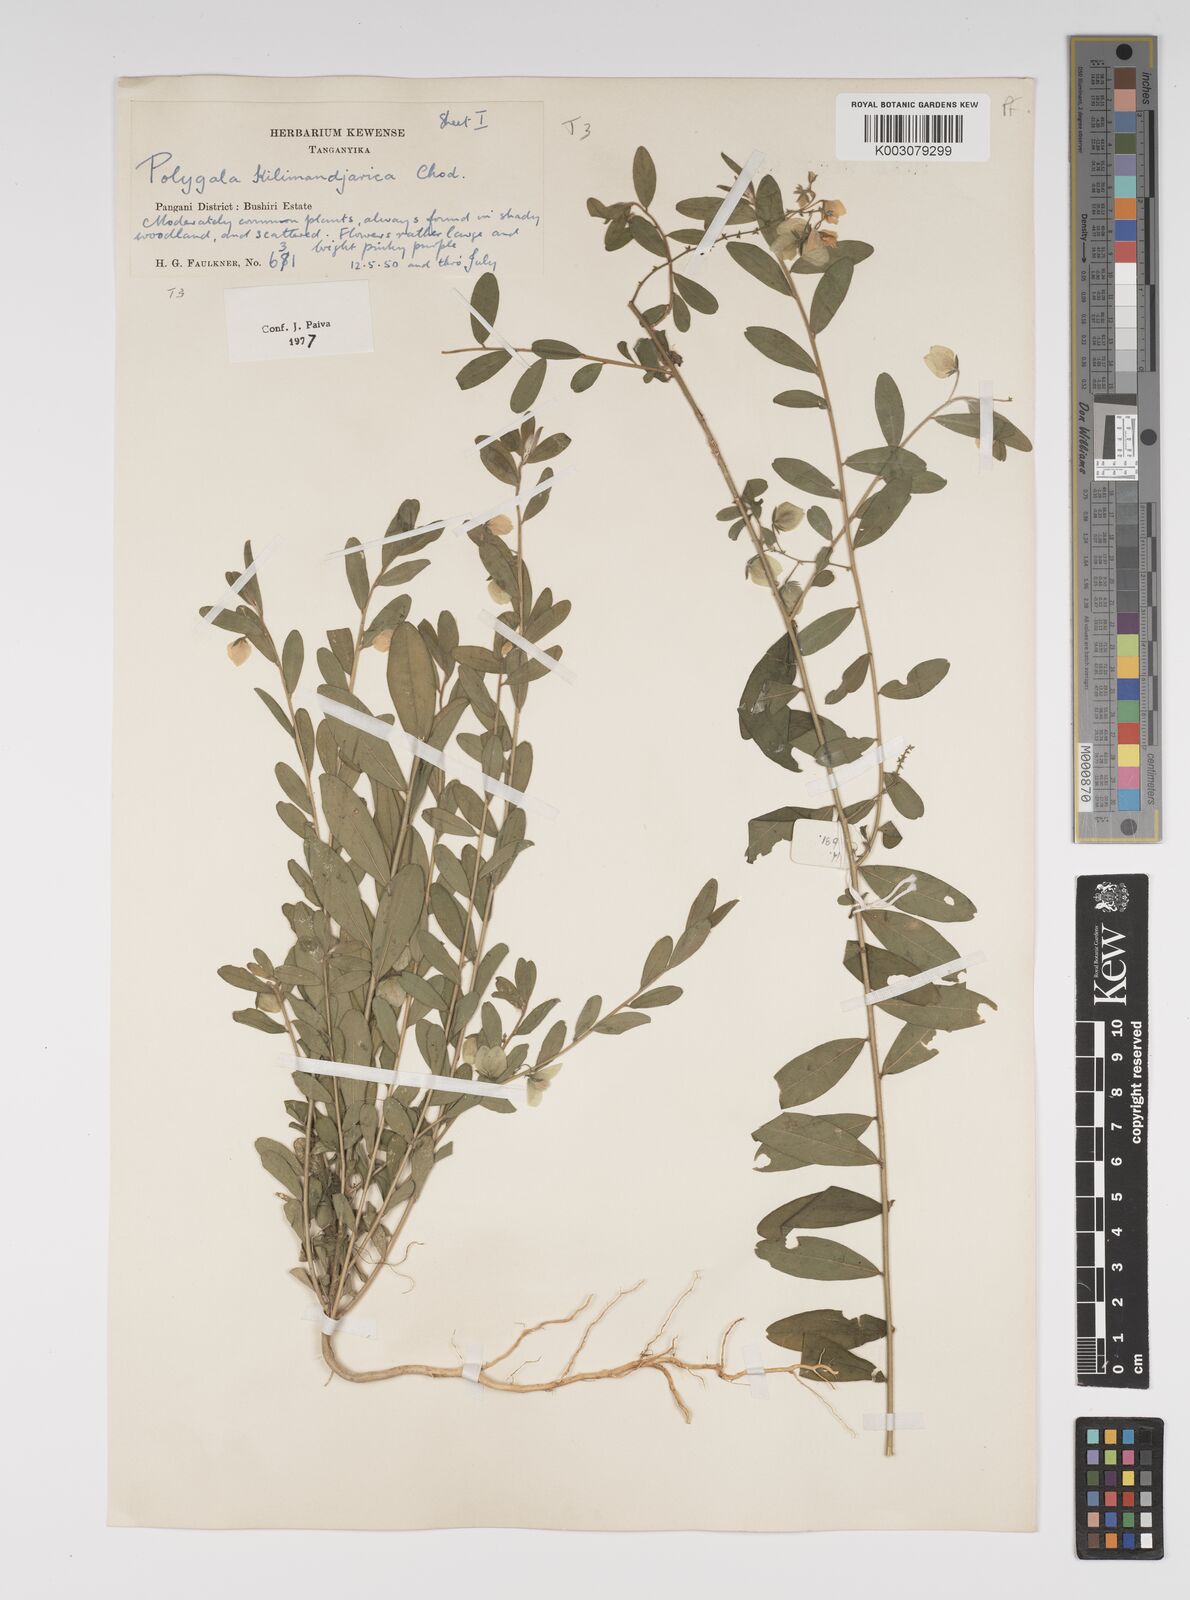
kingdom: Plantae
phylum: Tracheophyta
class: Magnoliopsida
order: Fabales
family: Polygalaceae
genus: Polygala
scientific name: Polygala kilimandjarica
